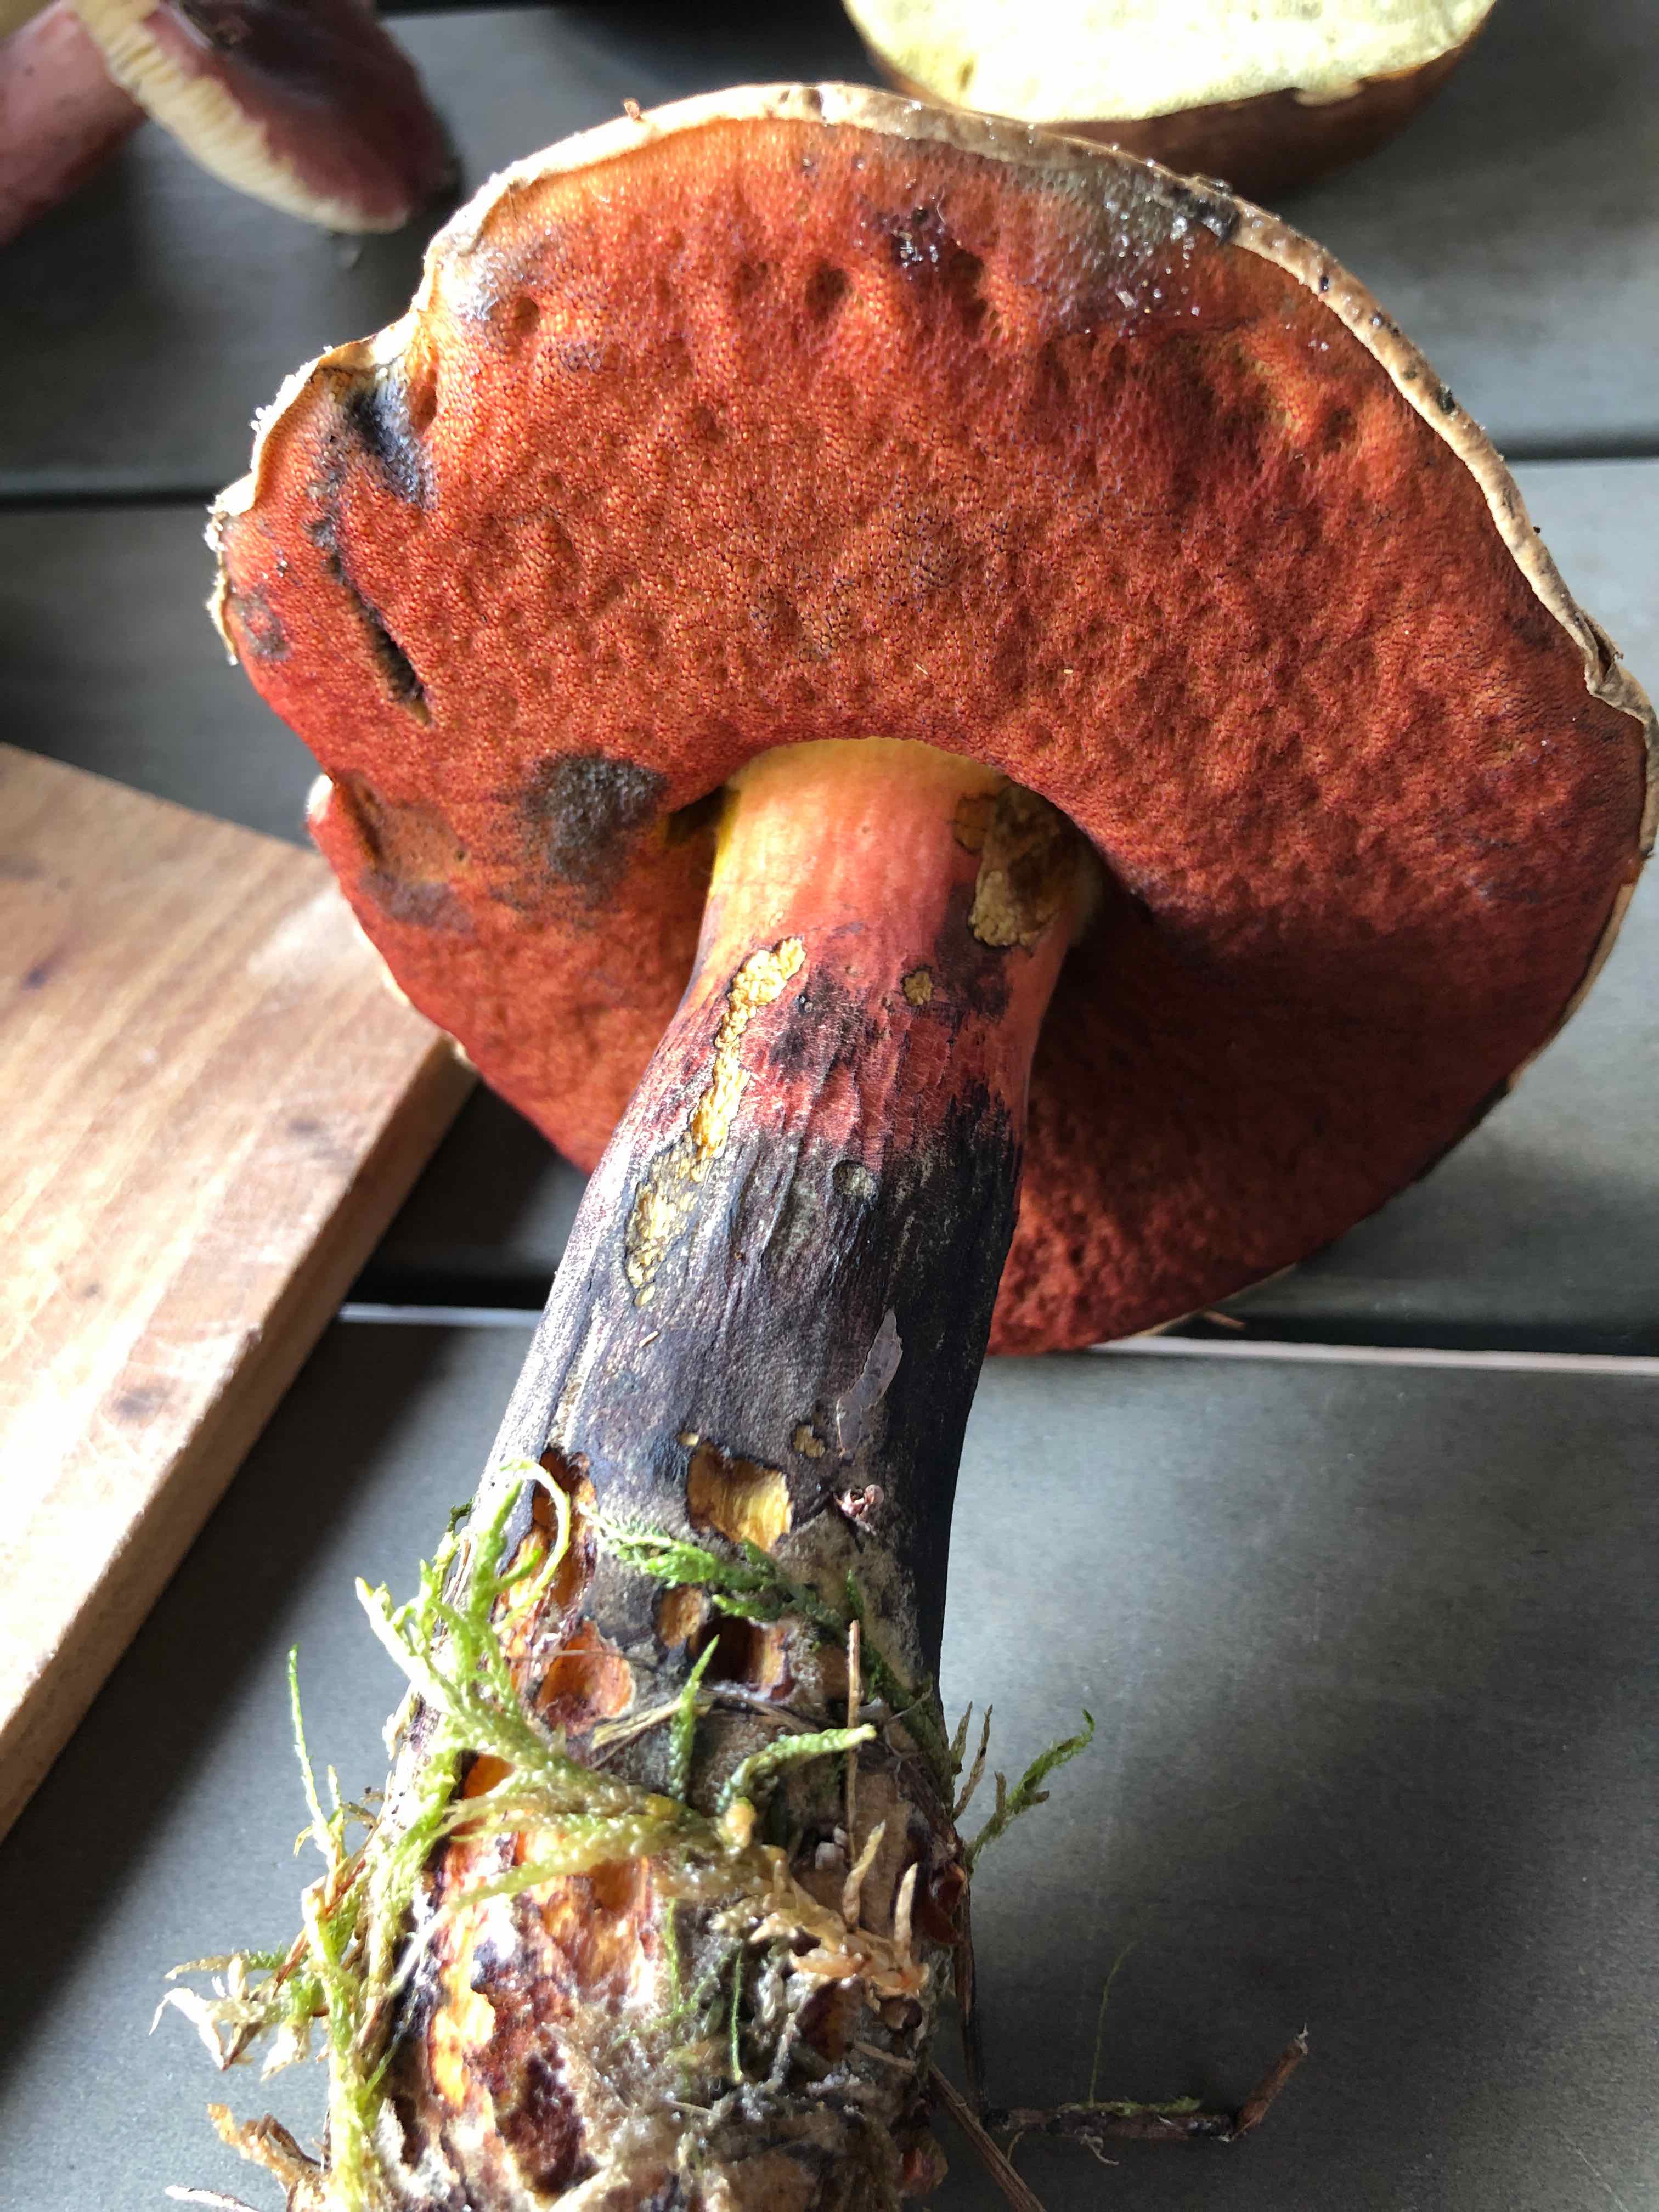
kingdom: Fungi
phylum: Basidiomycota
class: Agaricomycetes
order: Boletales
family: Boletaceae
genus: Neoboletus
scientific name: Neoboletus erythropus
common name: punktstokket indigorørhat
